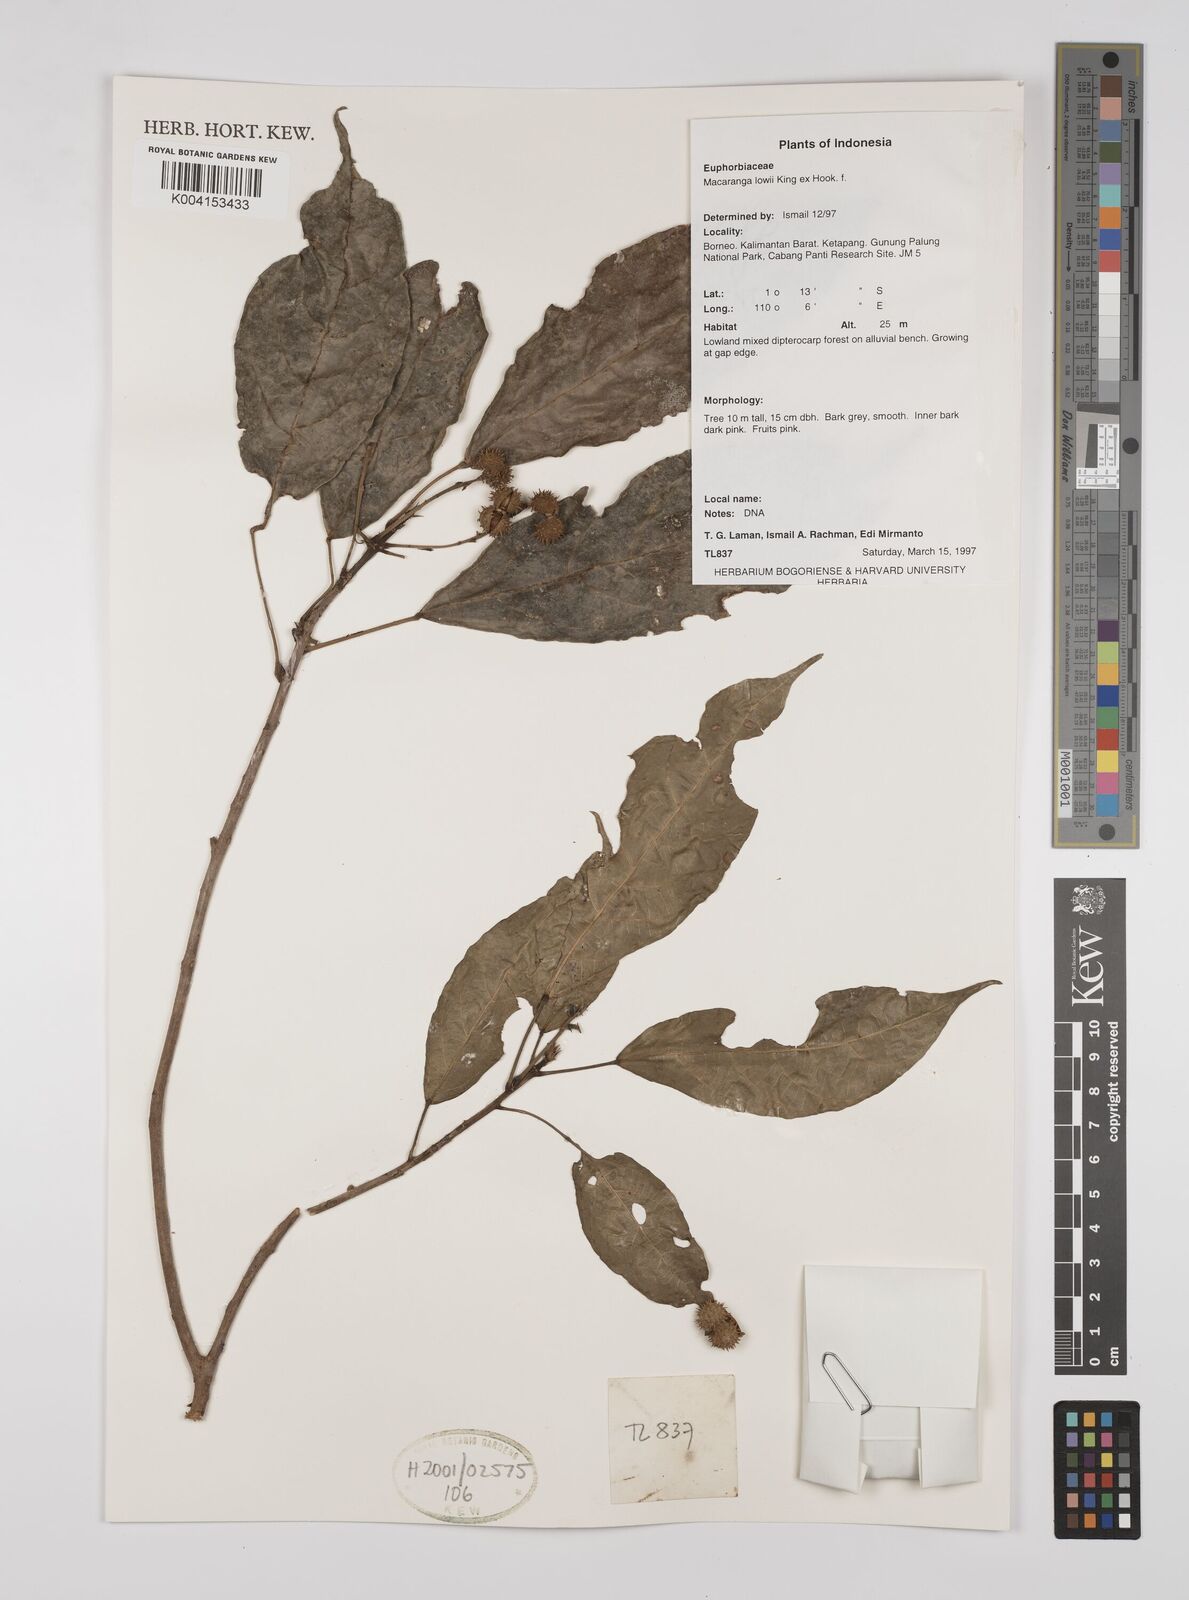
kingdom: Plantae
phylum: Tracheophyta
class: Magnoliopsida
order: Malpighiales
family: Euphorbiaceae
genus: Macaranga
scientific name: Macaranga lowii
